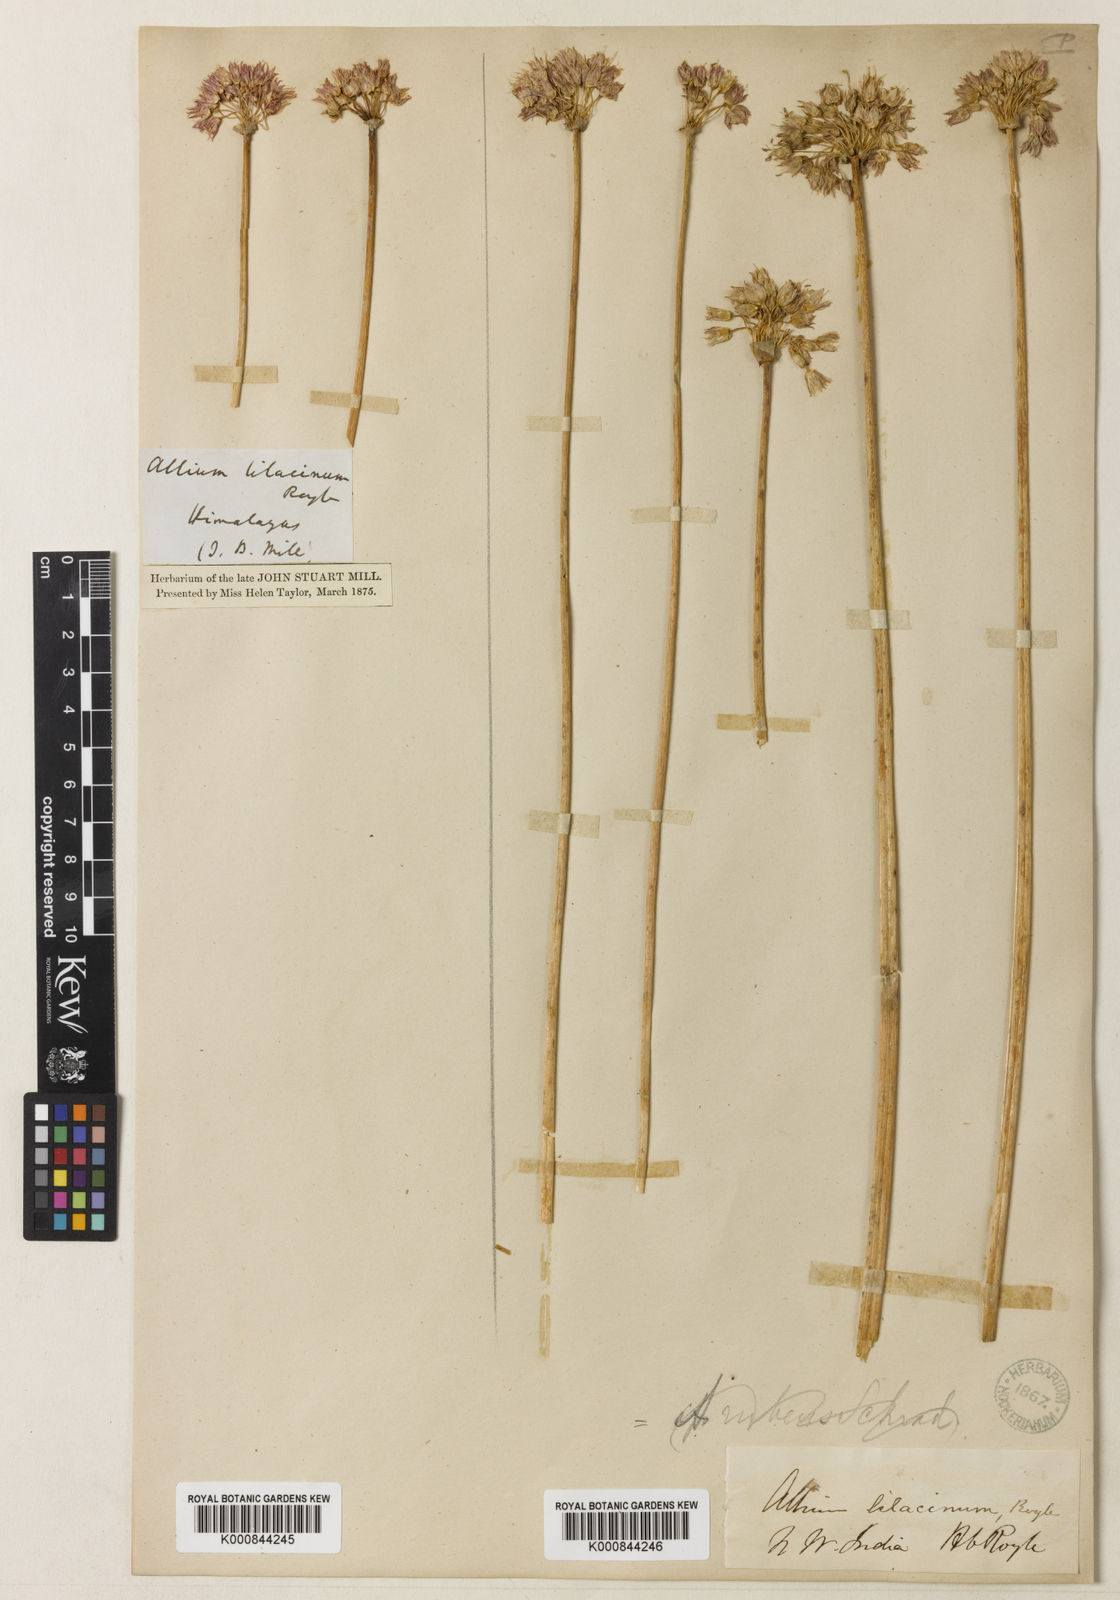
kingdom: Plantae
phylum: Tracheophyta
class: Liliopsida
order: Asparagales
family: Amaryllidaceae
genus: Allium
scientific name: Allium roylei
